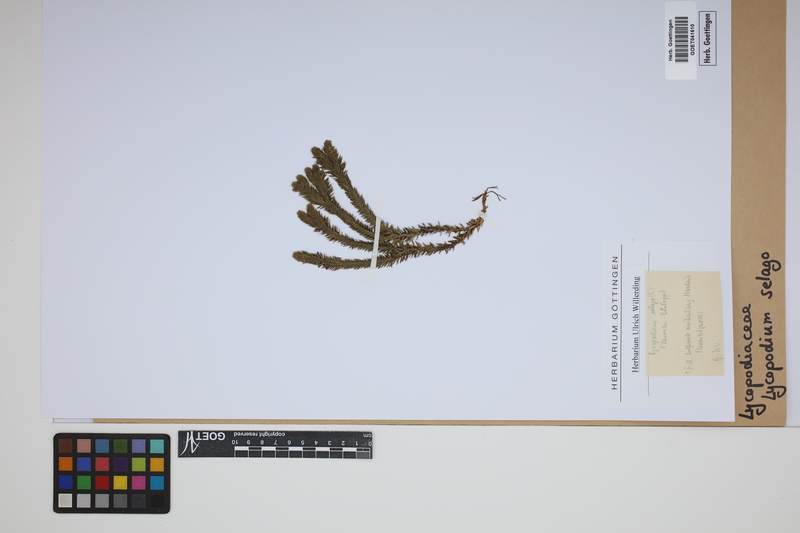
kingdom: Plantae
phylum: Tracheophyta
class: Lycopodiopsida
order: Lycopodiales
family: Lycopodiaceae
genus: Huperzia
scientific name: Huperzia selago
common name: Northern firmoss
